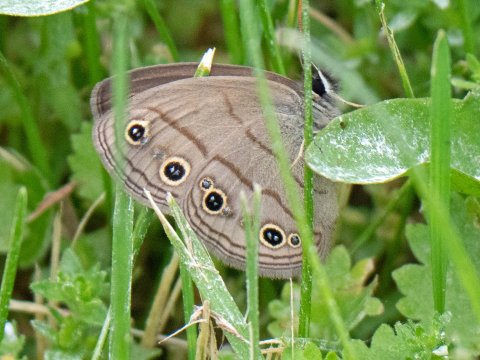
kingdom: Animalia
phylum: Arthropoda
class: Insecta
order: Lepidoptera
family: Nymphalidae
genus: Euptychia
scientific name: Euptychia cymela
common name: Little Wood Satyr
